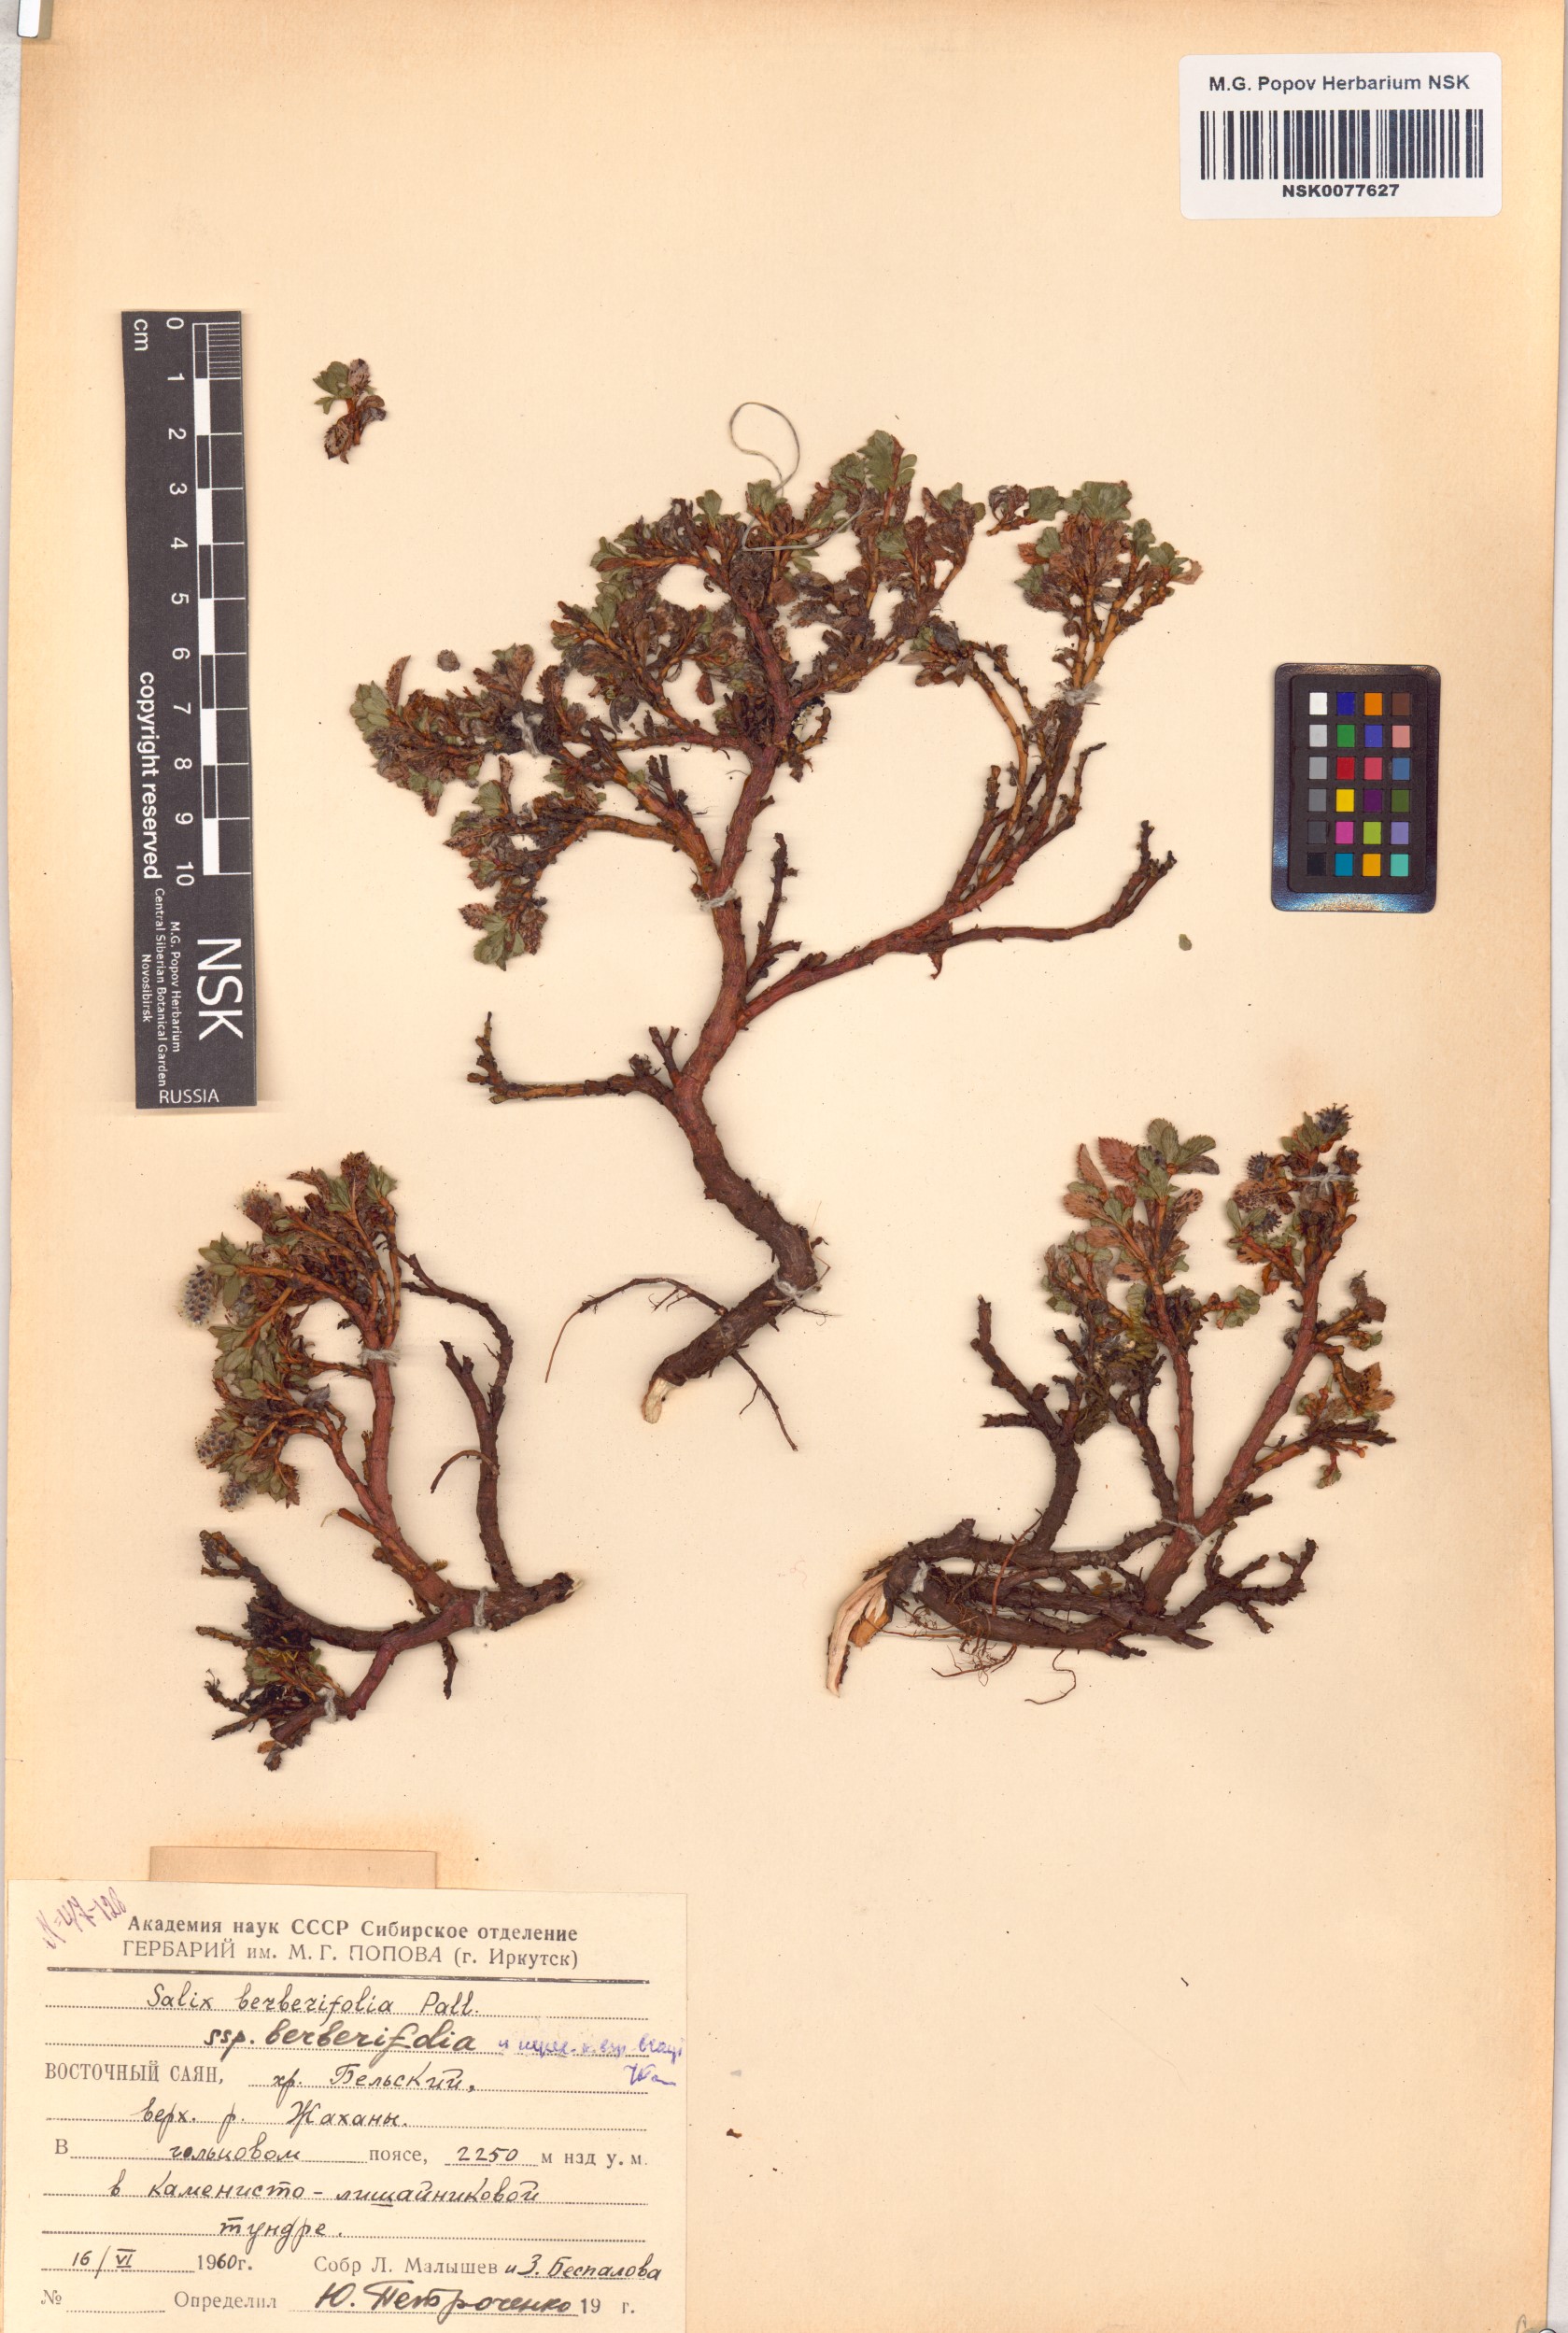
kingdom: Plantae
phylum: Tracheophyta
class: Magnoliopsida
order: Malpighiales
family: Salicaceae
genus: Salix
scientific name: Salix berberifolia
